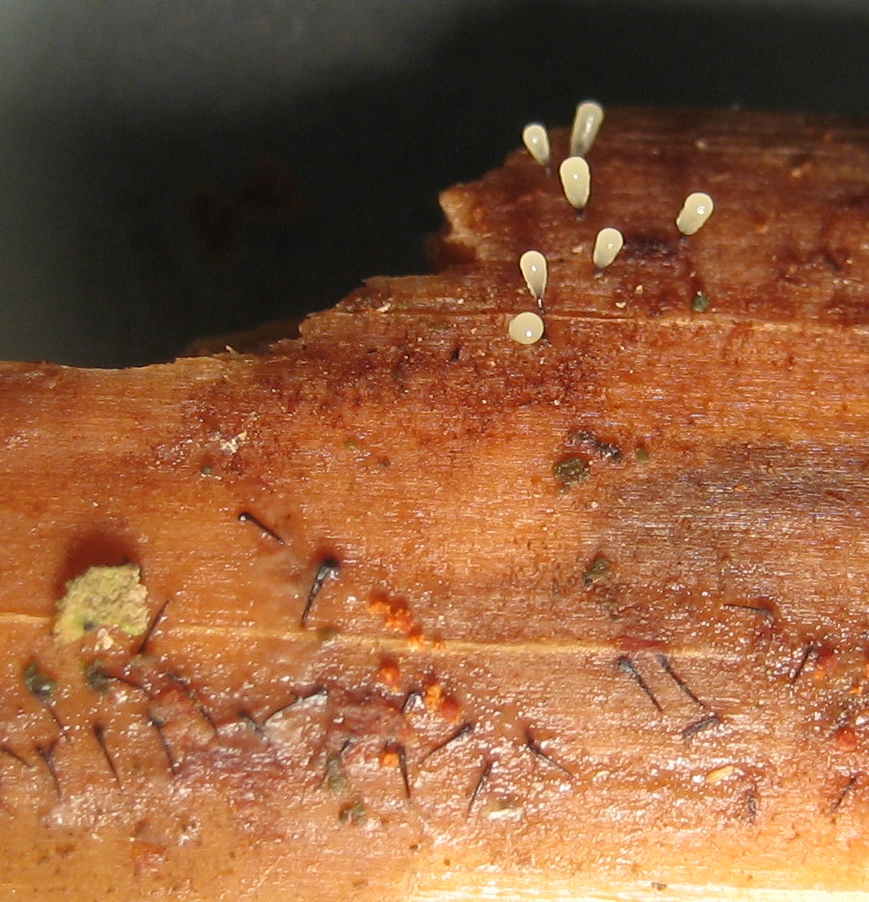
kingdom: Protozoa
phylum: Mycetozoa
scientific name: Mycetozoa
